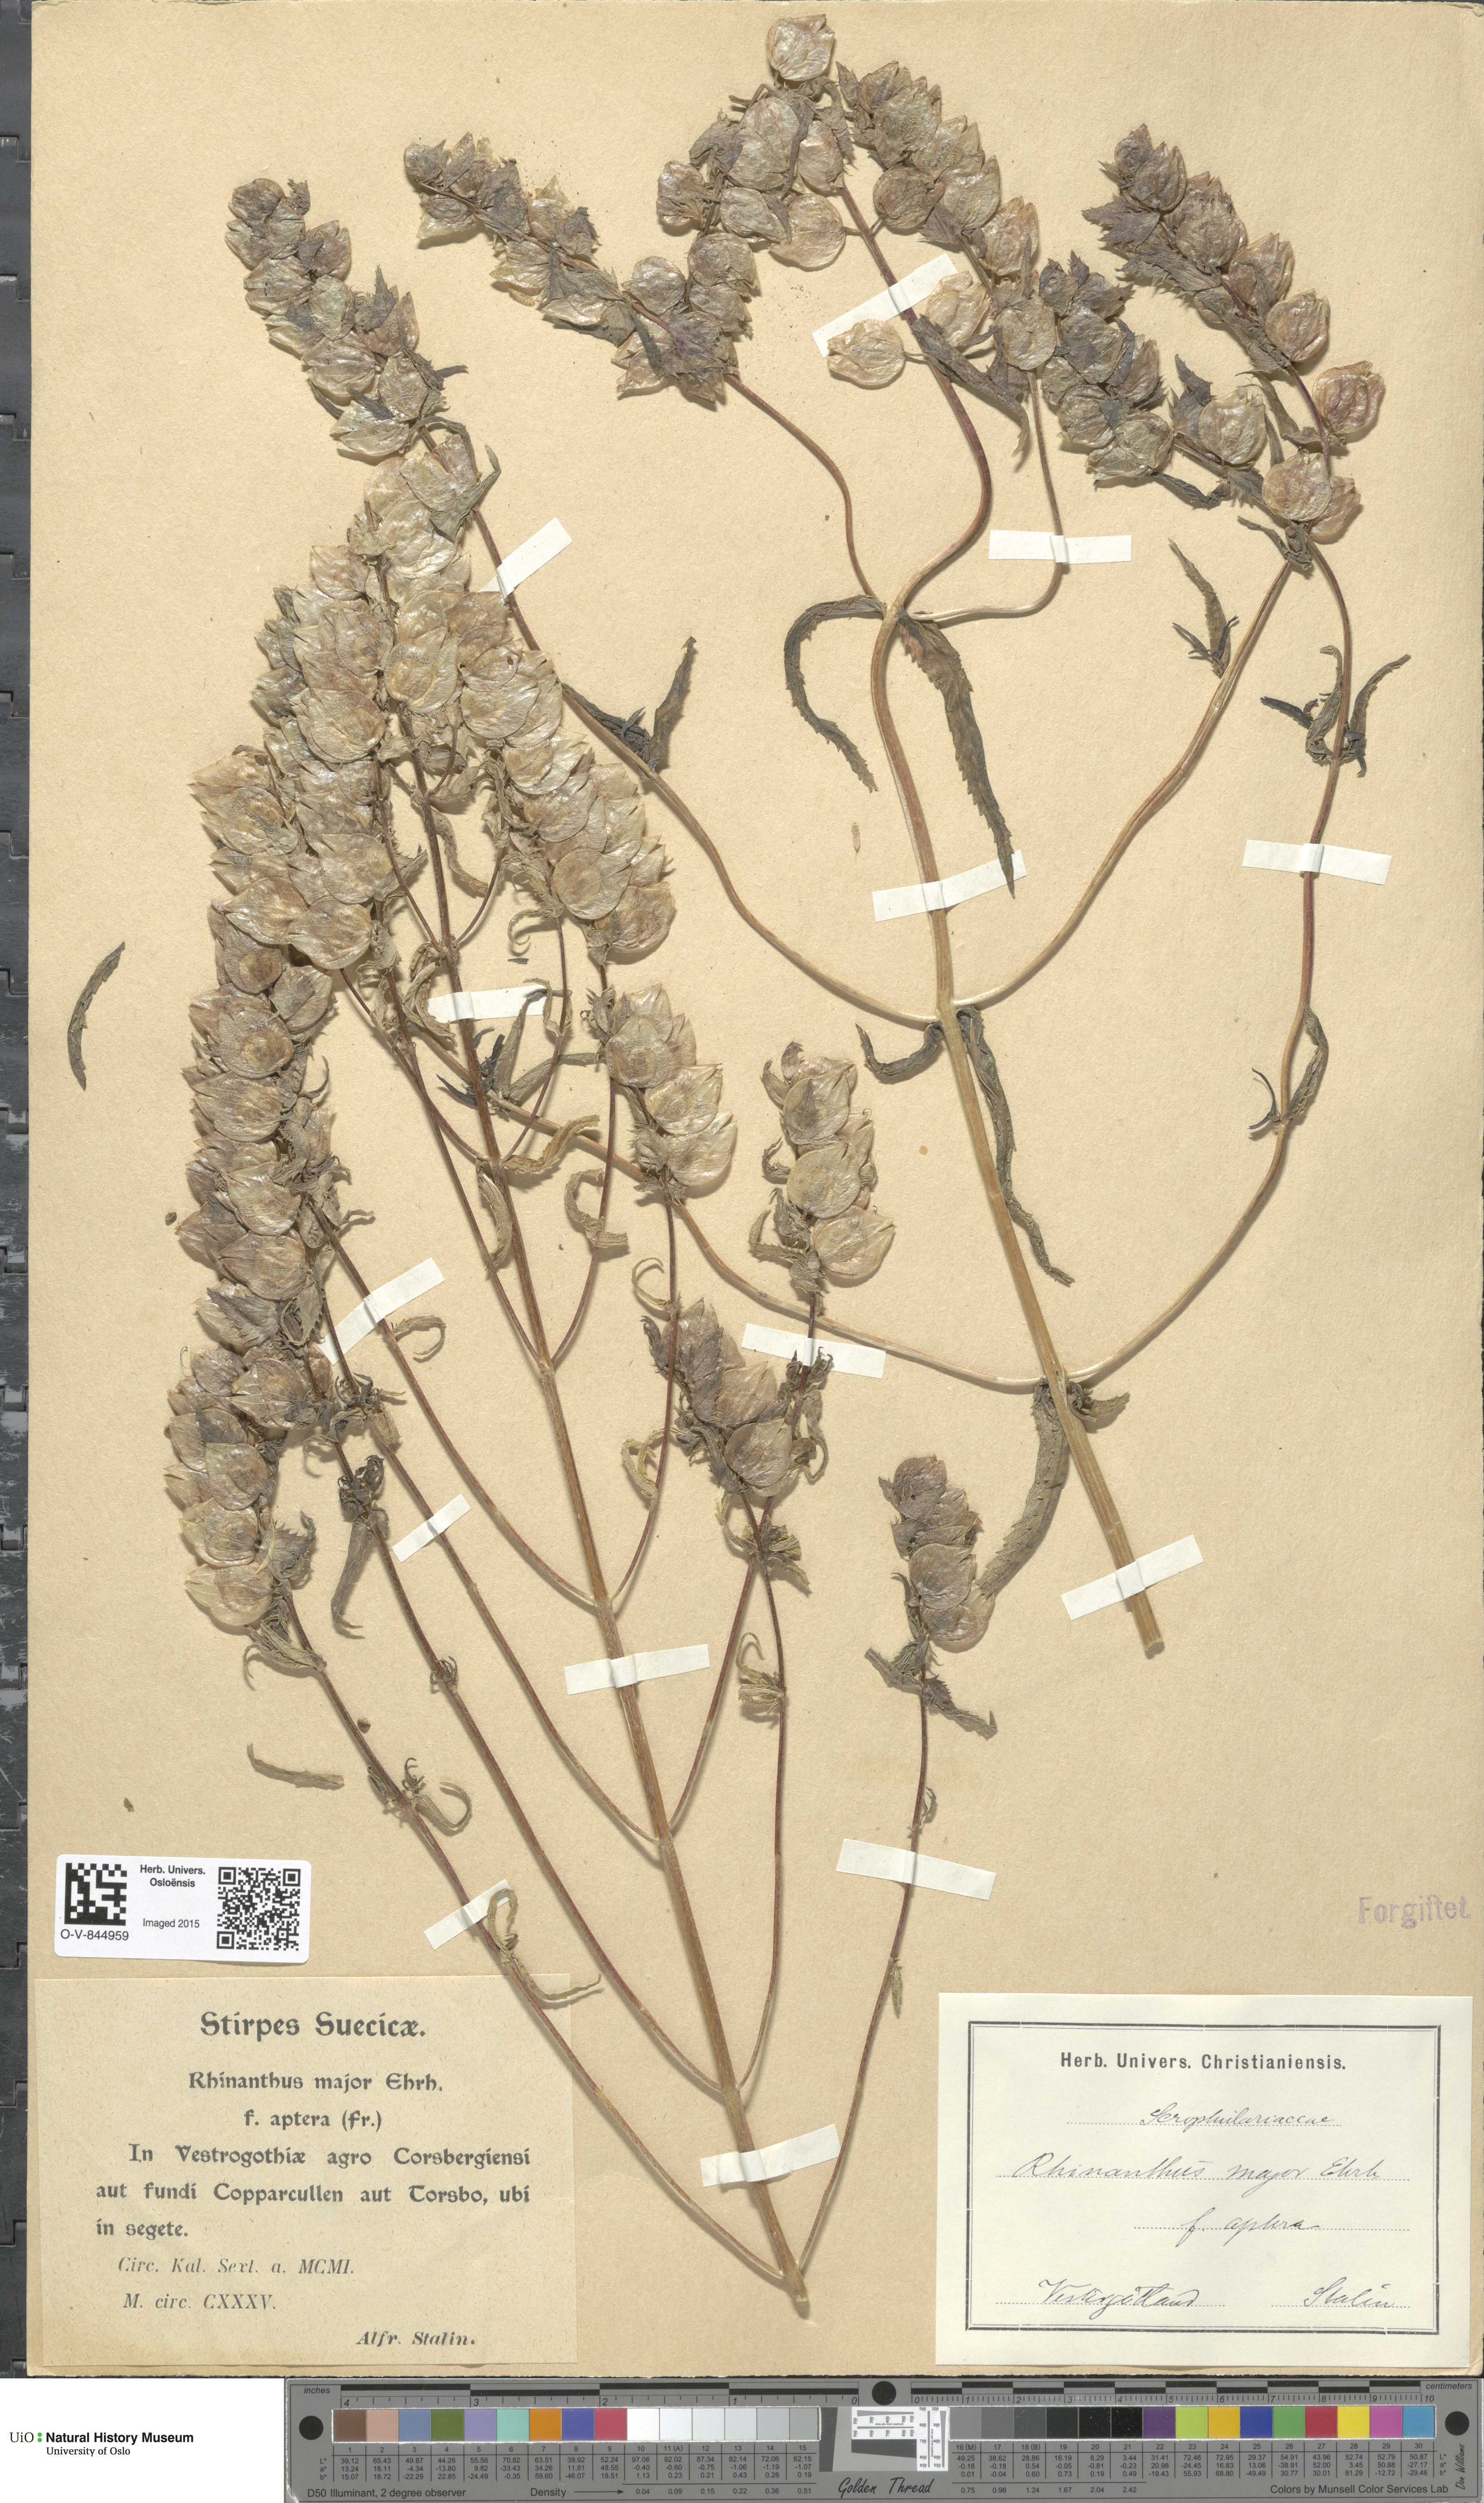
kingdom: Plantae
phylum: Tracheophyta
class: Magnoliopsida
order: Lamiales
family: Orobanchaceae
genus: Rhinanthus
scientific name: Rhinanthus serotinus
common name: Late-flowering yellow rattle
